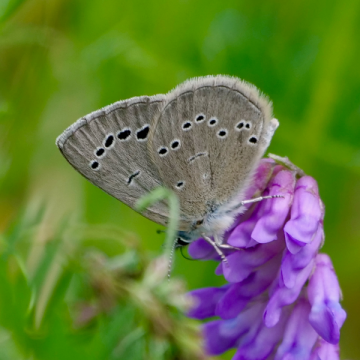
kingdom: Animalia
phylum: Arthropoda
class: Insecta
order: Lepidoptera
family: Lycaenidae
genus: Glaucopsyche
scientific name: Glaucopsyche lygdamus
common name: Silvery Blue
